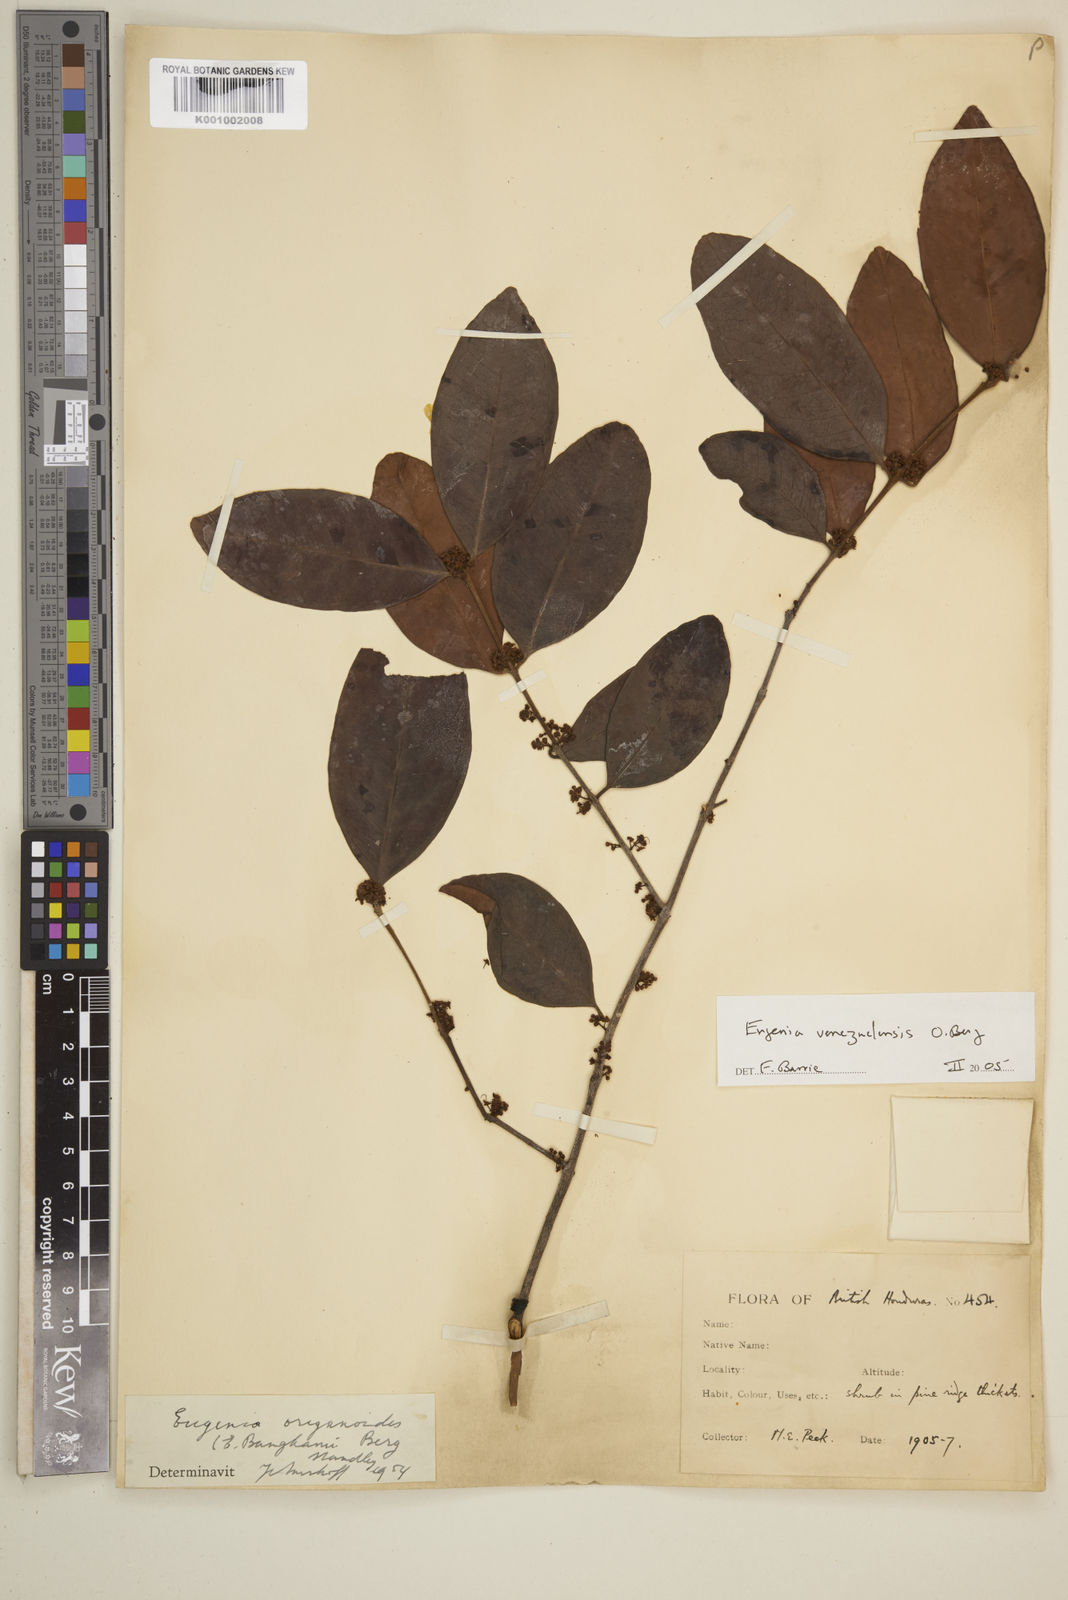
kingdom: Plantae
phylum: Tracheophyta
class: Magnoliopsida
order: Myrtales
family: Myrtaceae
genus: Eugenia
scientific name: Eugenia venezuelensis
